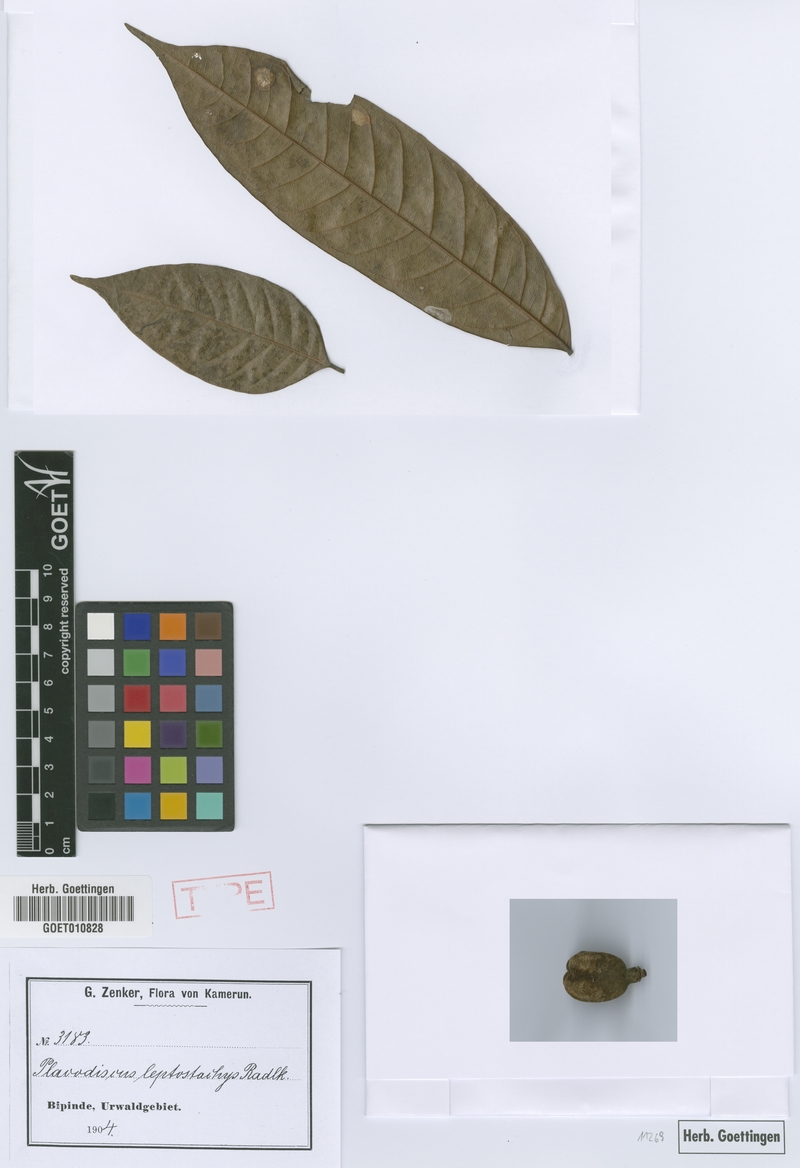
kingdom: Plantae
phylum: Tracheophyta
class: Magnoliopsida
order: Sapindales
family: Sapindaceae
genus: Placodiscus
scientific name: Placodiscus glandulosus
